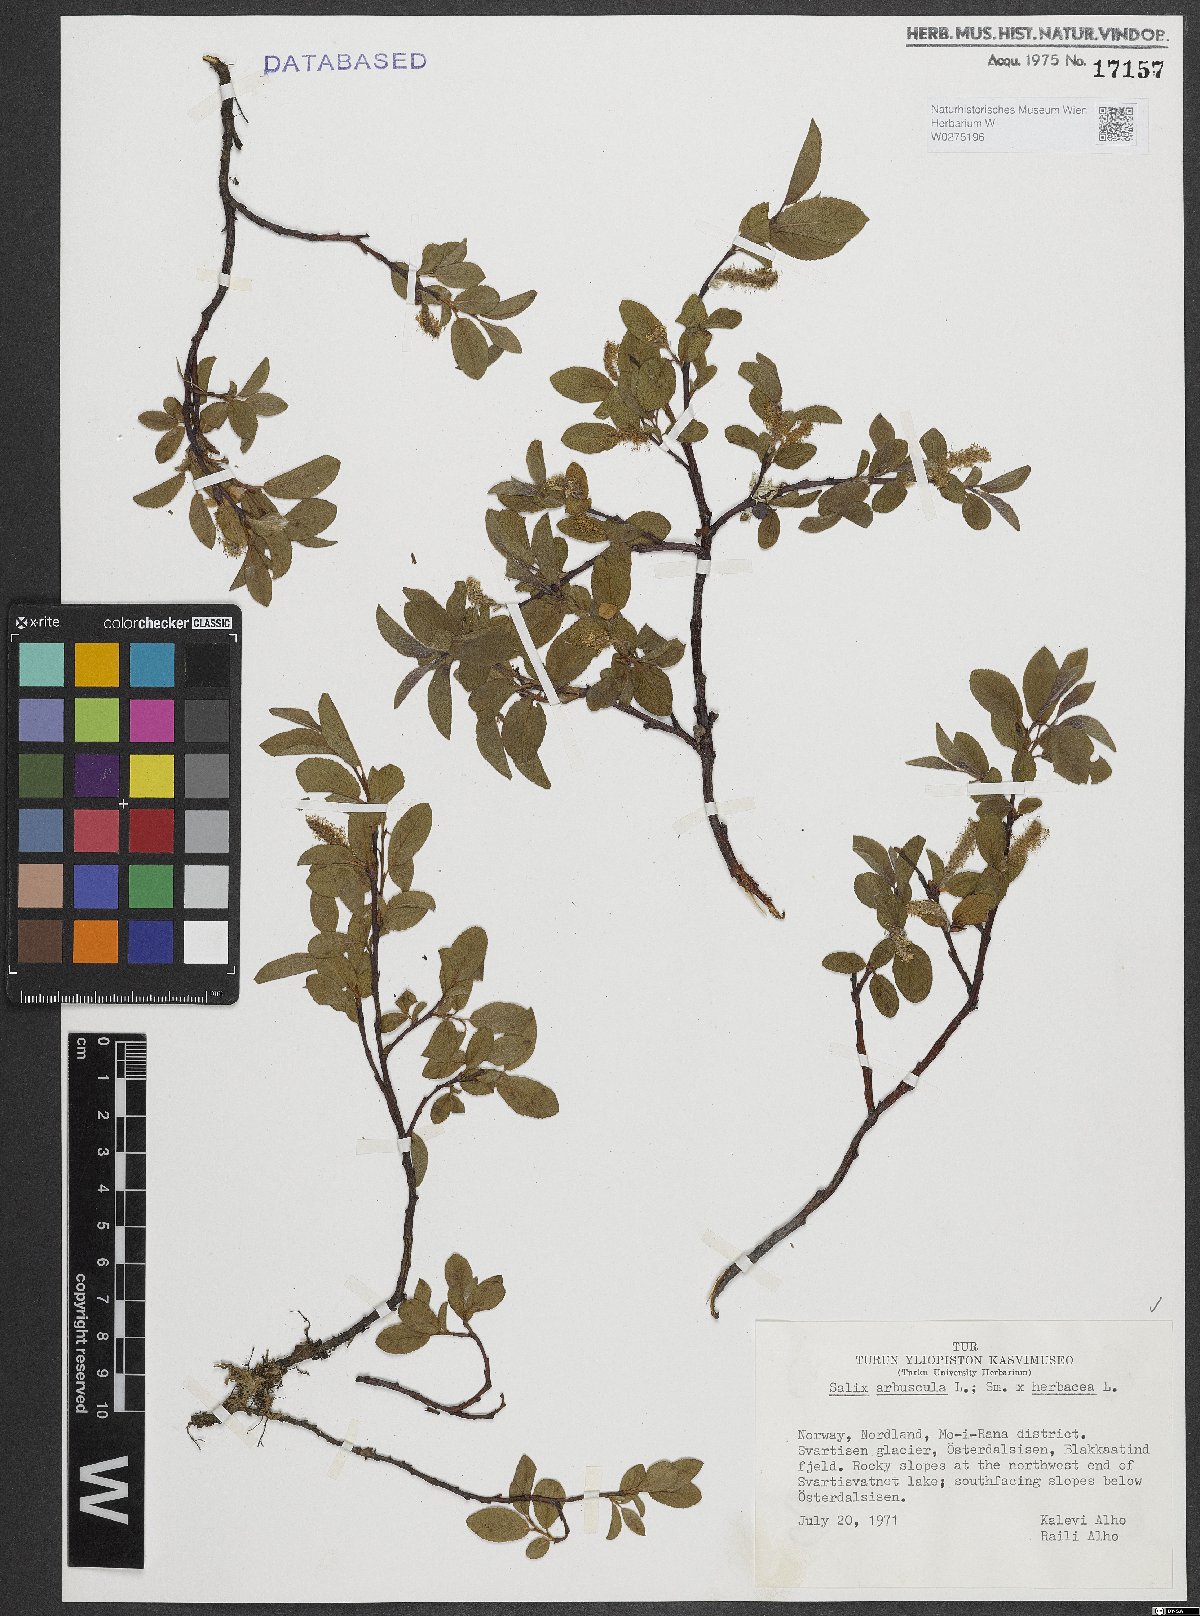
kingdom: Plantae
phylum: Tracheophyta
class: Magnoliopsida
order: Malpighiales
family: Salicaceae
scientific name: Salicaceae
